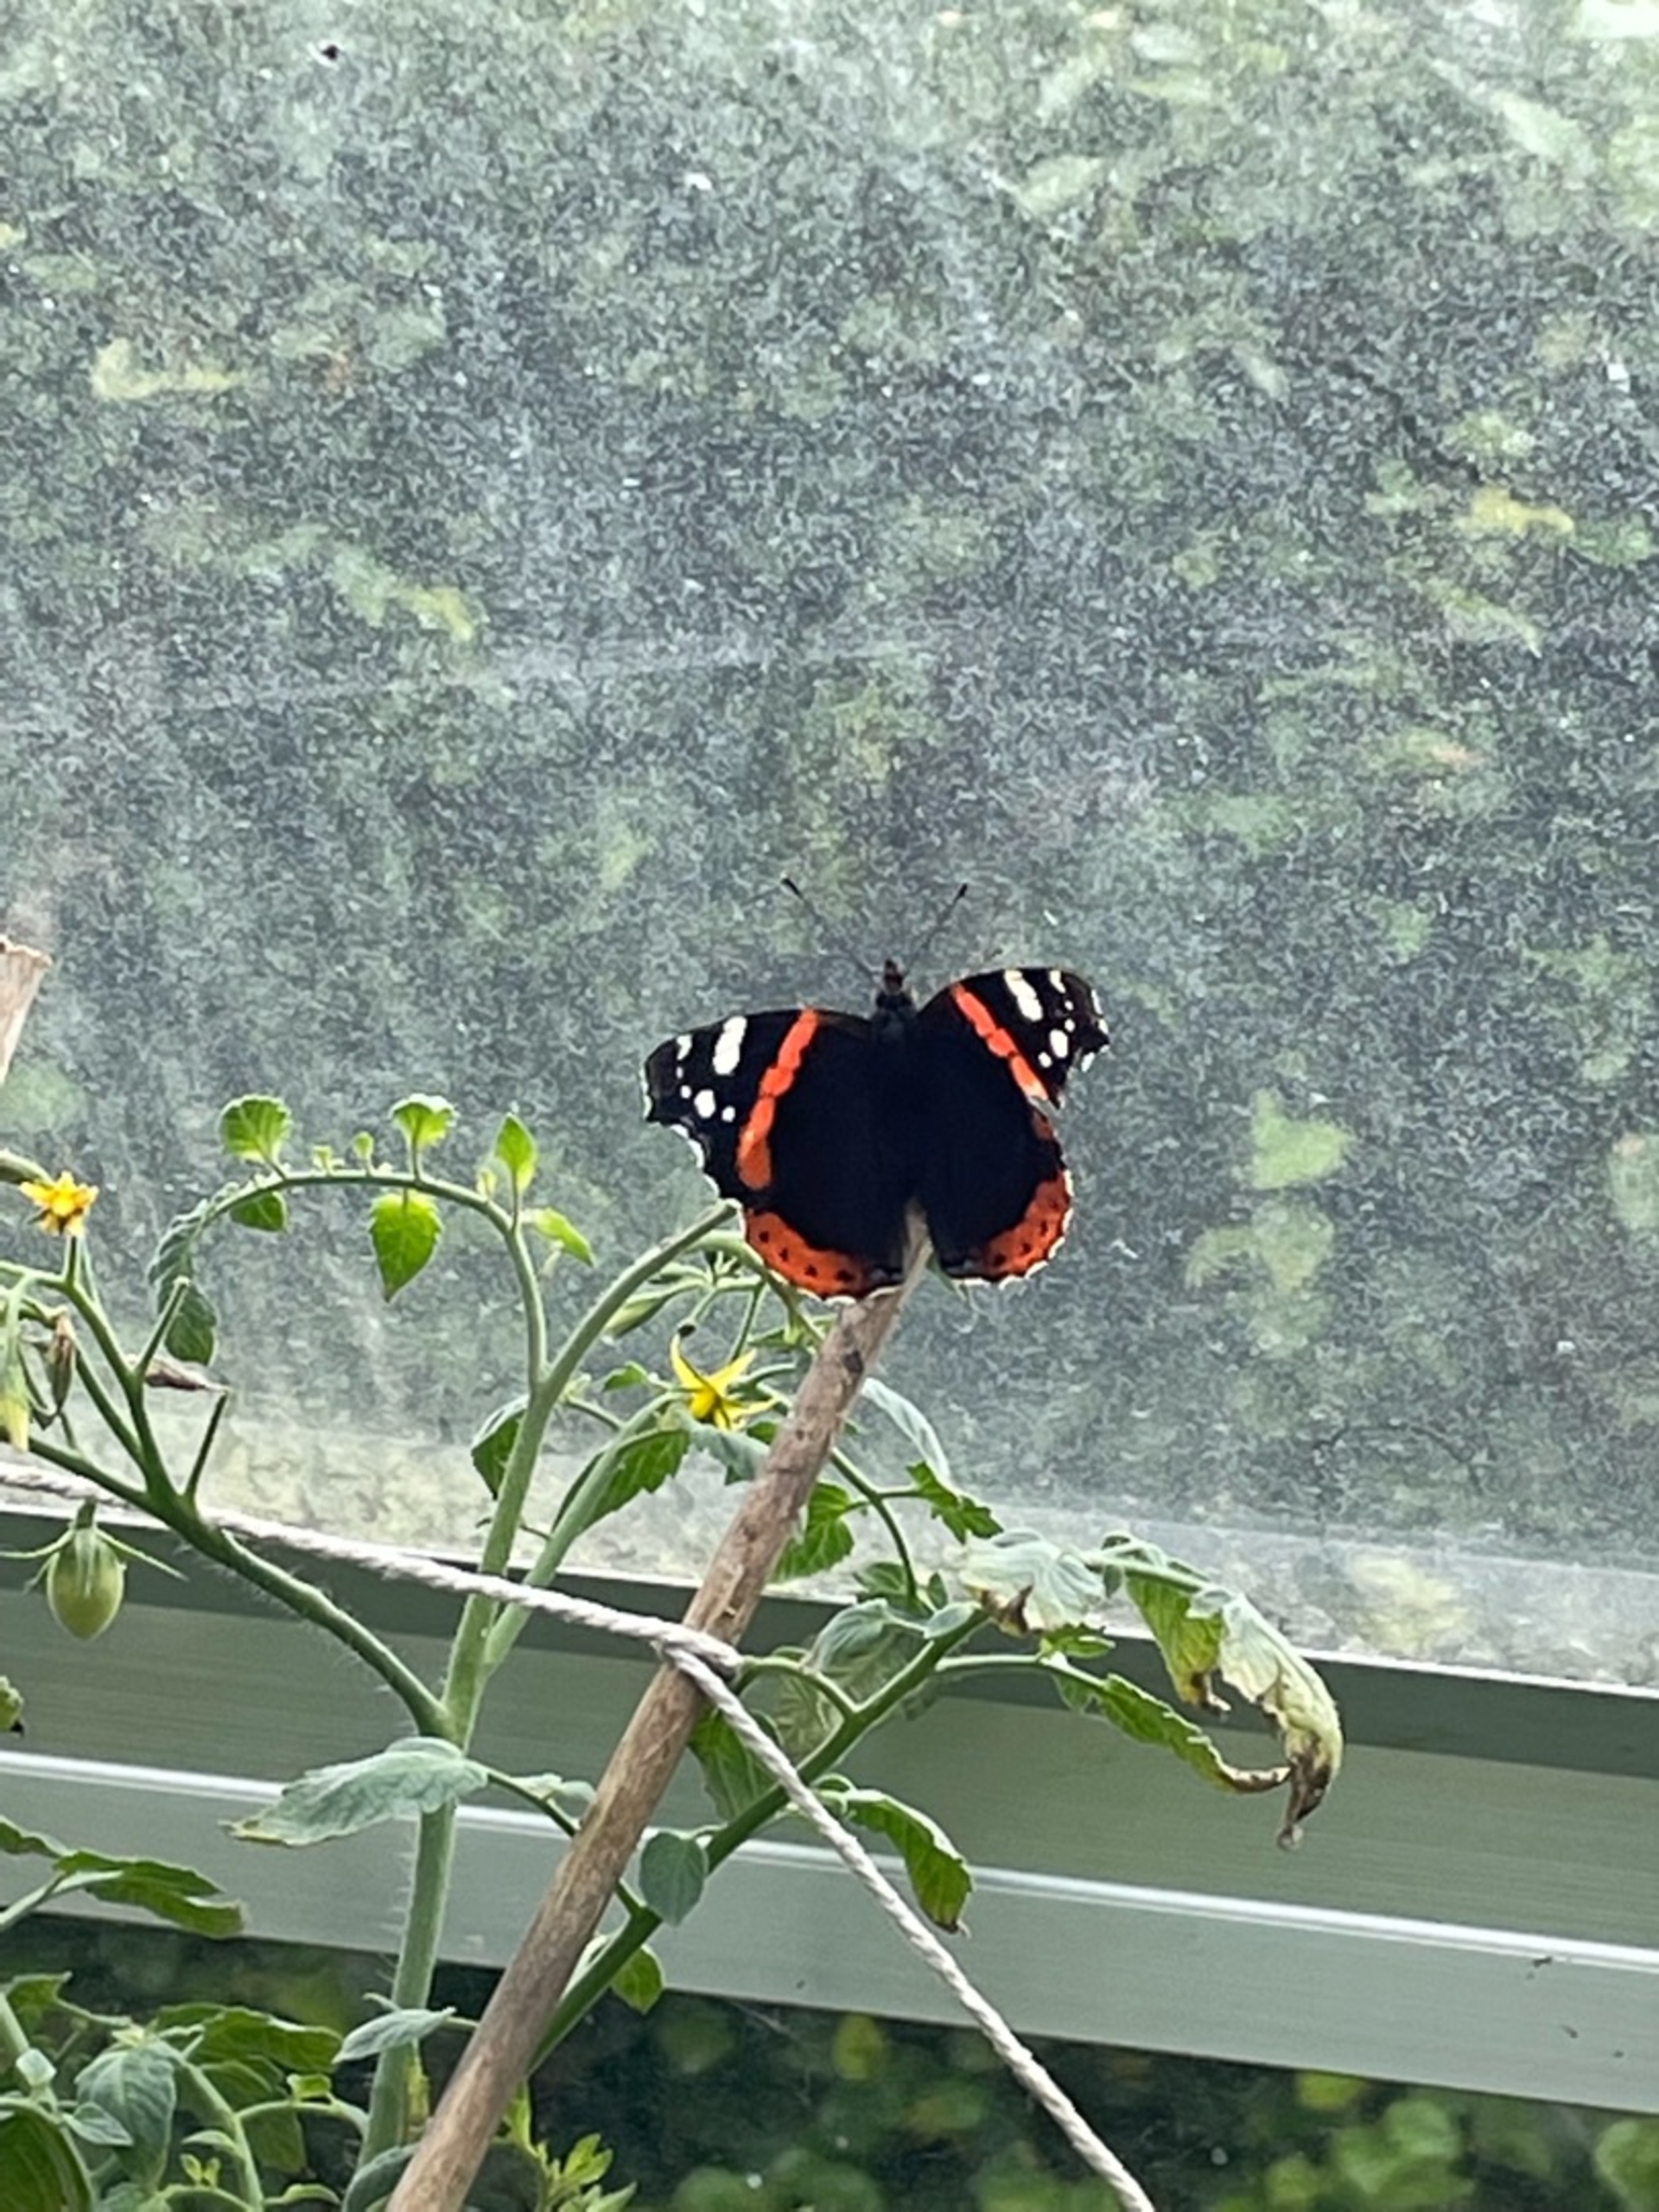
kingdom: Animalia
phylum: Arthropoda
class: Insecta
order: Lepidoptera
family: Nymphalidae
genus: Vanessa
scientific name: Vanessa atalanta
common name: Admiral
